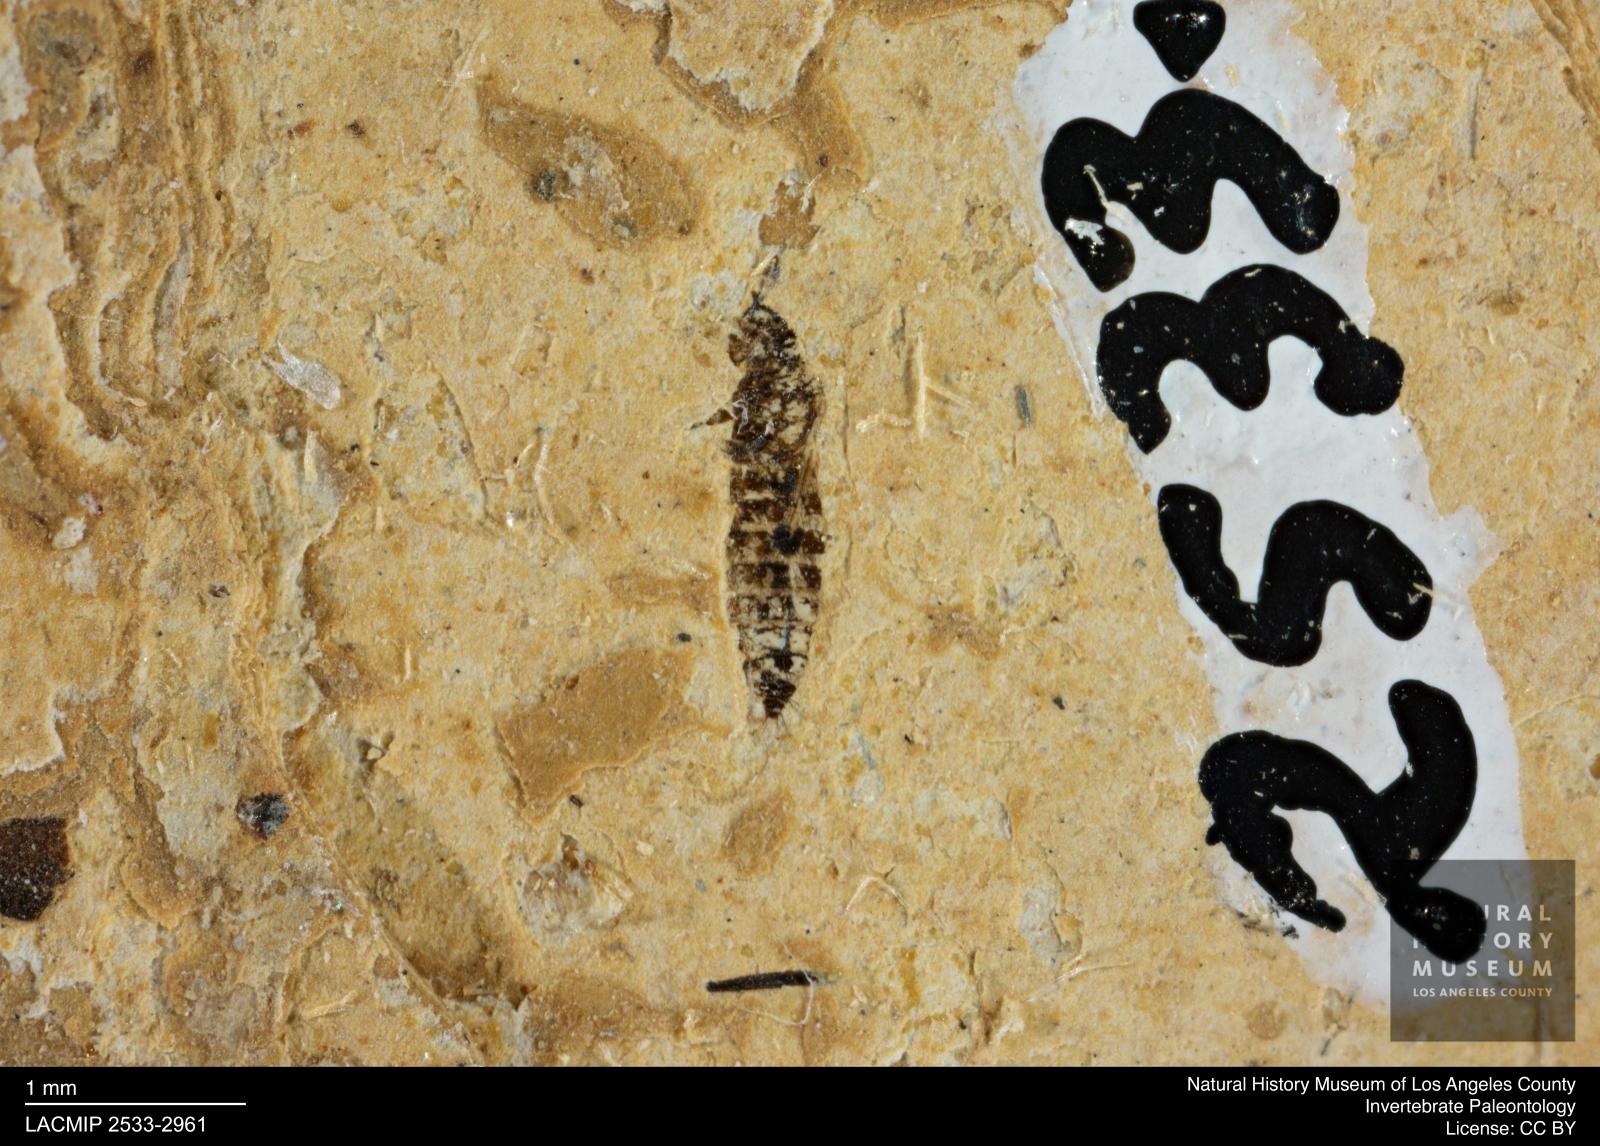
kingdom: Animalia
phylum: Arthropoda
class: Insecta
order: Thysanoptera
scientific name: Thysanoptera
